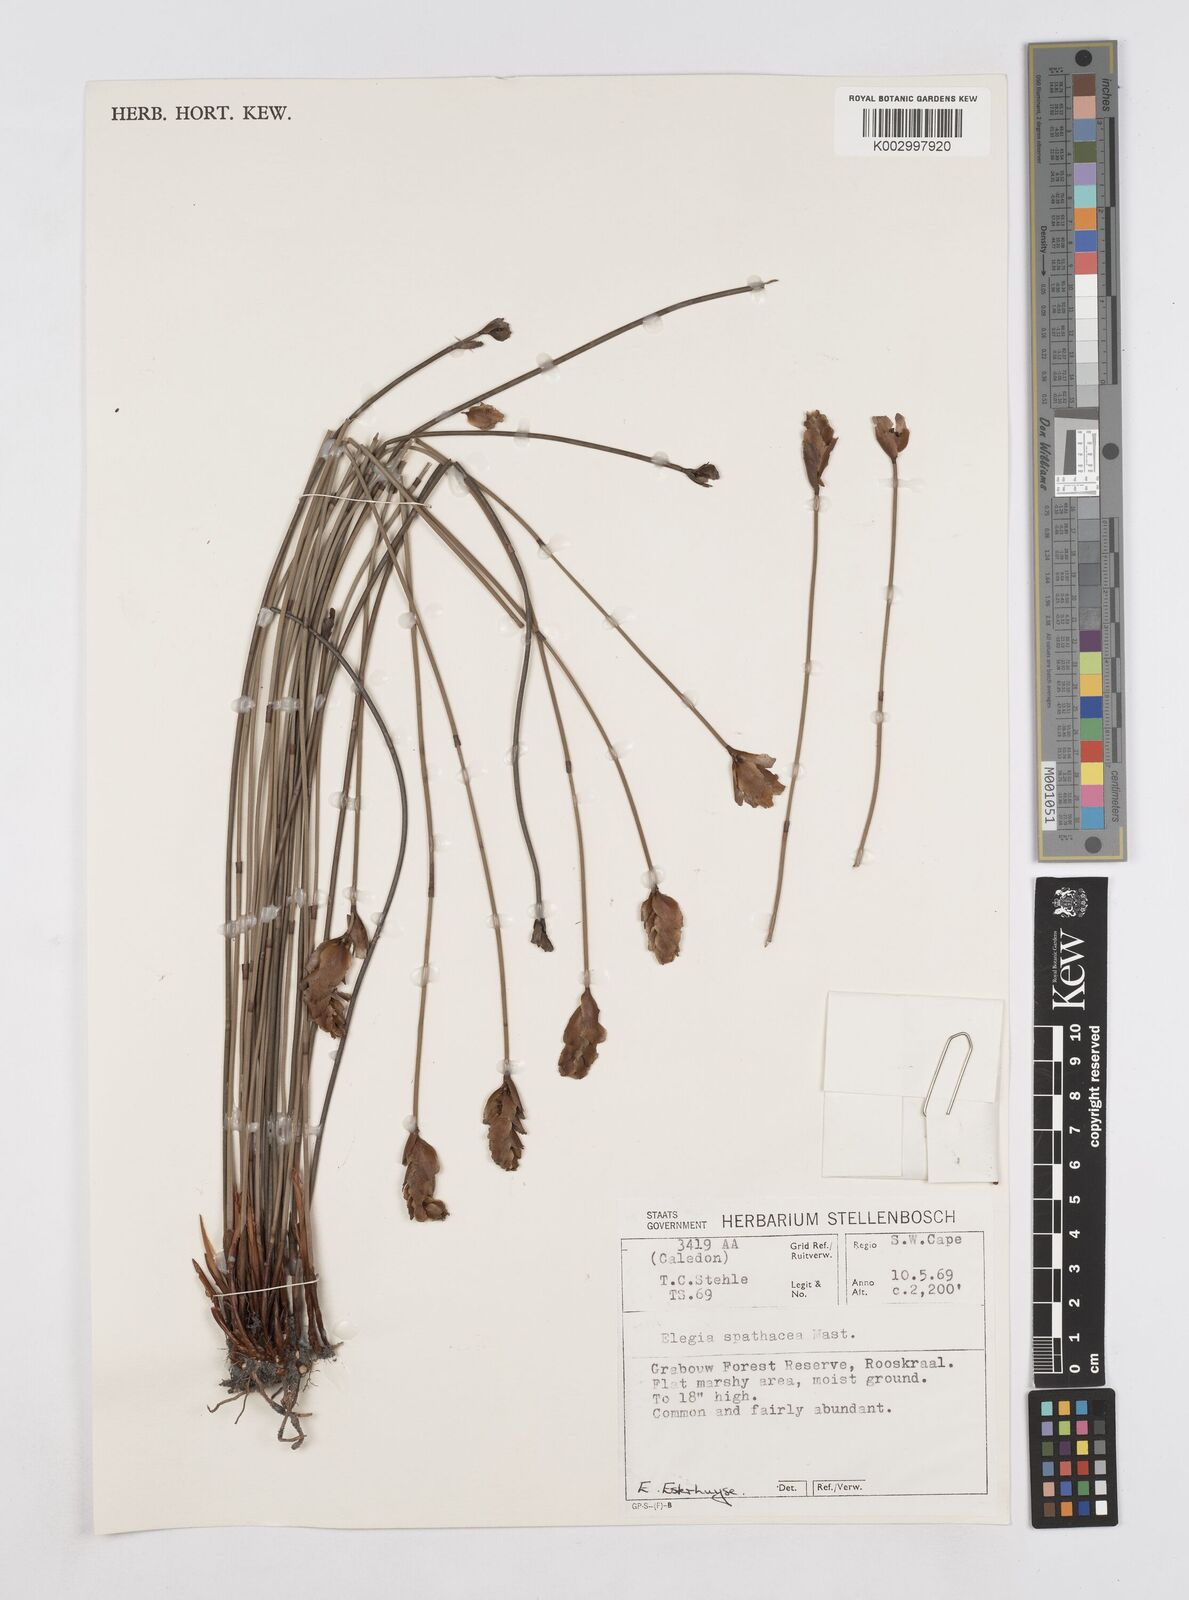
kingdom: Plantae
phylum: Tracheophyta
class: Liliopsida
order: Poales
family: Restionaceae
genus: Elegia
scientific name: Elegia spathacea
